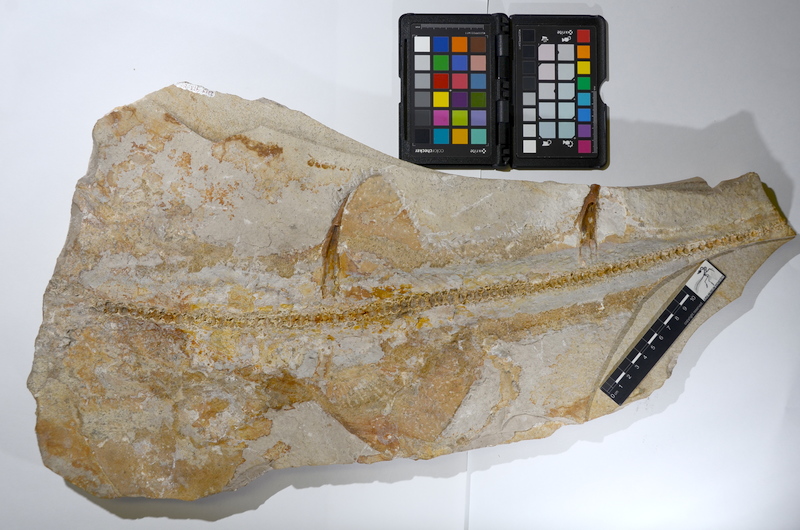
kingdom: Animalia
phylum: Chordata
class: Elasmobranchii
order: Heterodontiformes
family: Heterodontidae
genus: Paracestracion
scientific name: Paracestracion falcifer
